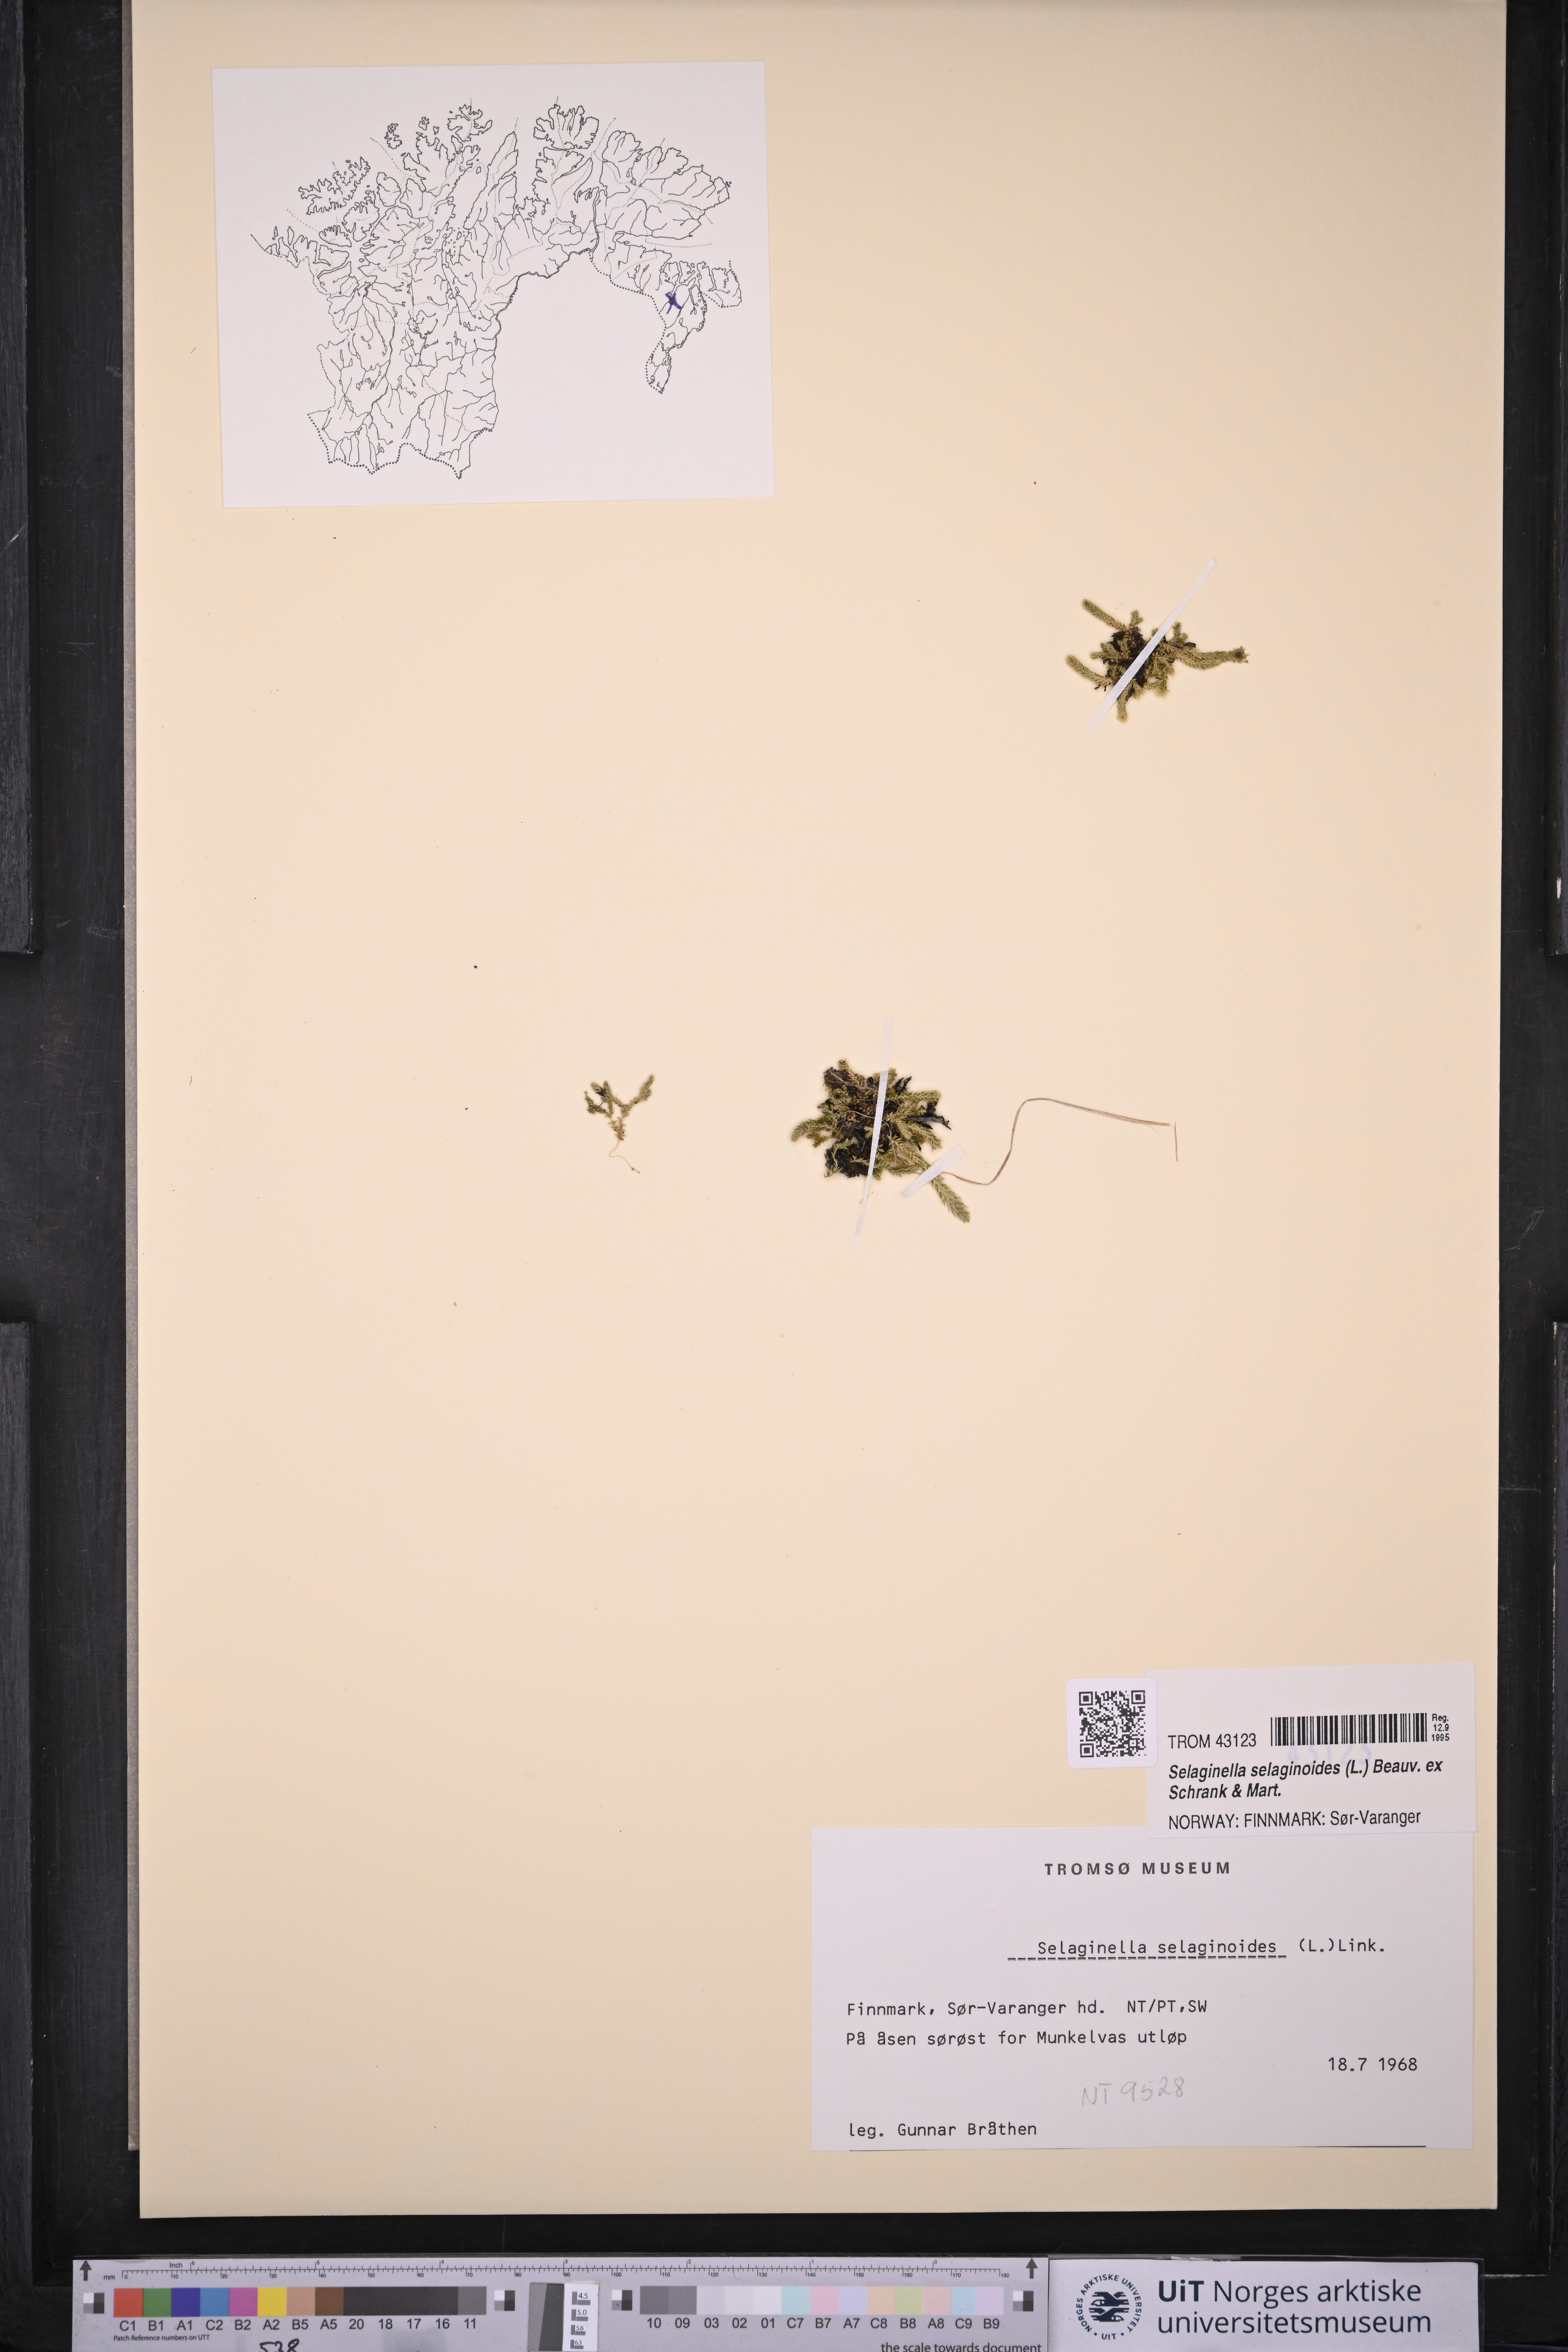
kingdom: Plantae
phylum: Tracheophyta
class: Lycopodiopsida
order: Selaginellales
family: Selaginellaceae
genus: Selaginella
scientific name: Selaginella selaginoides
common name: Prickly mountain-moss
